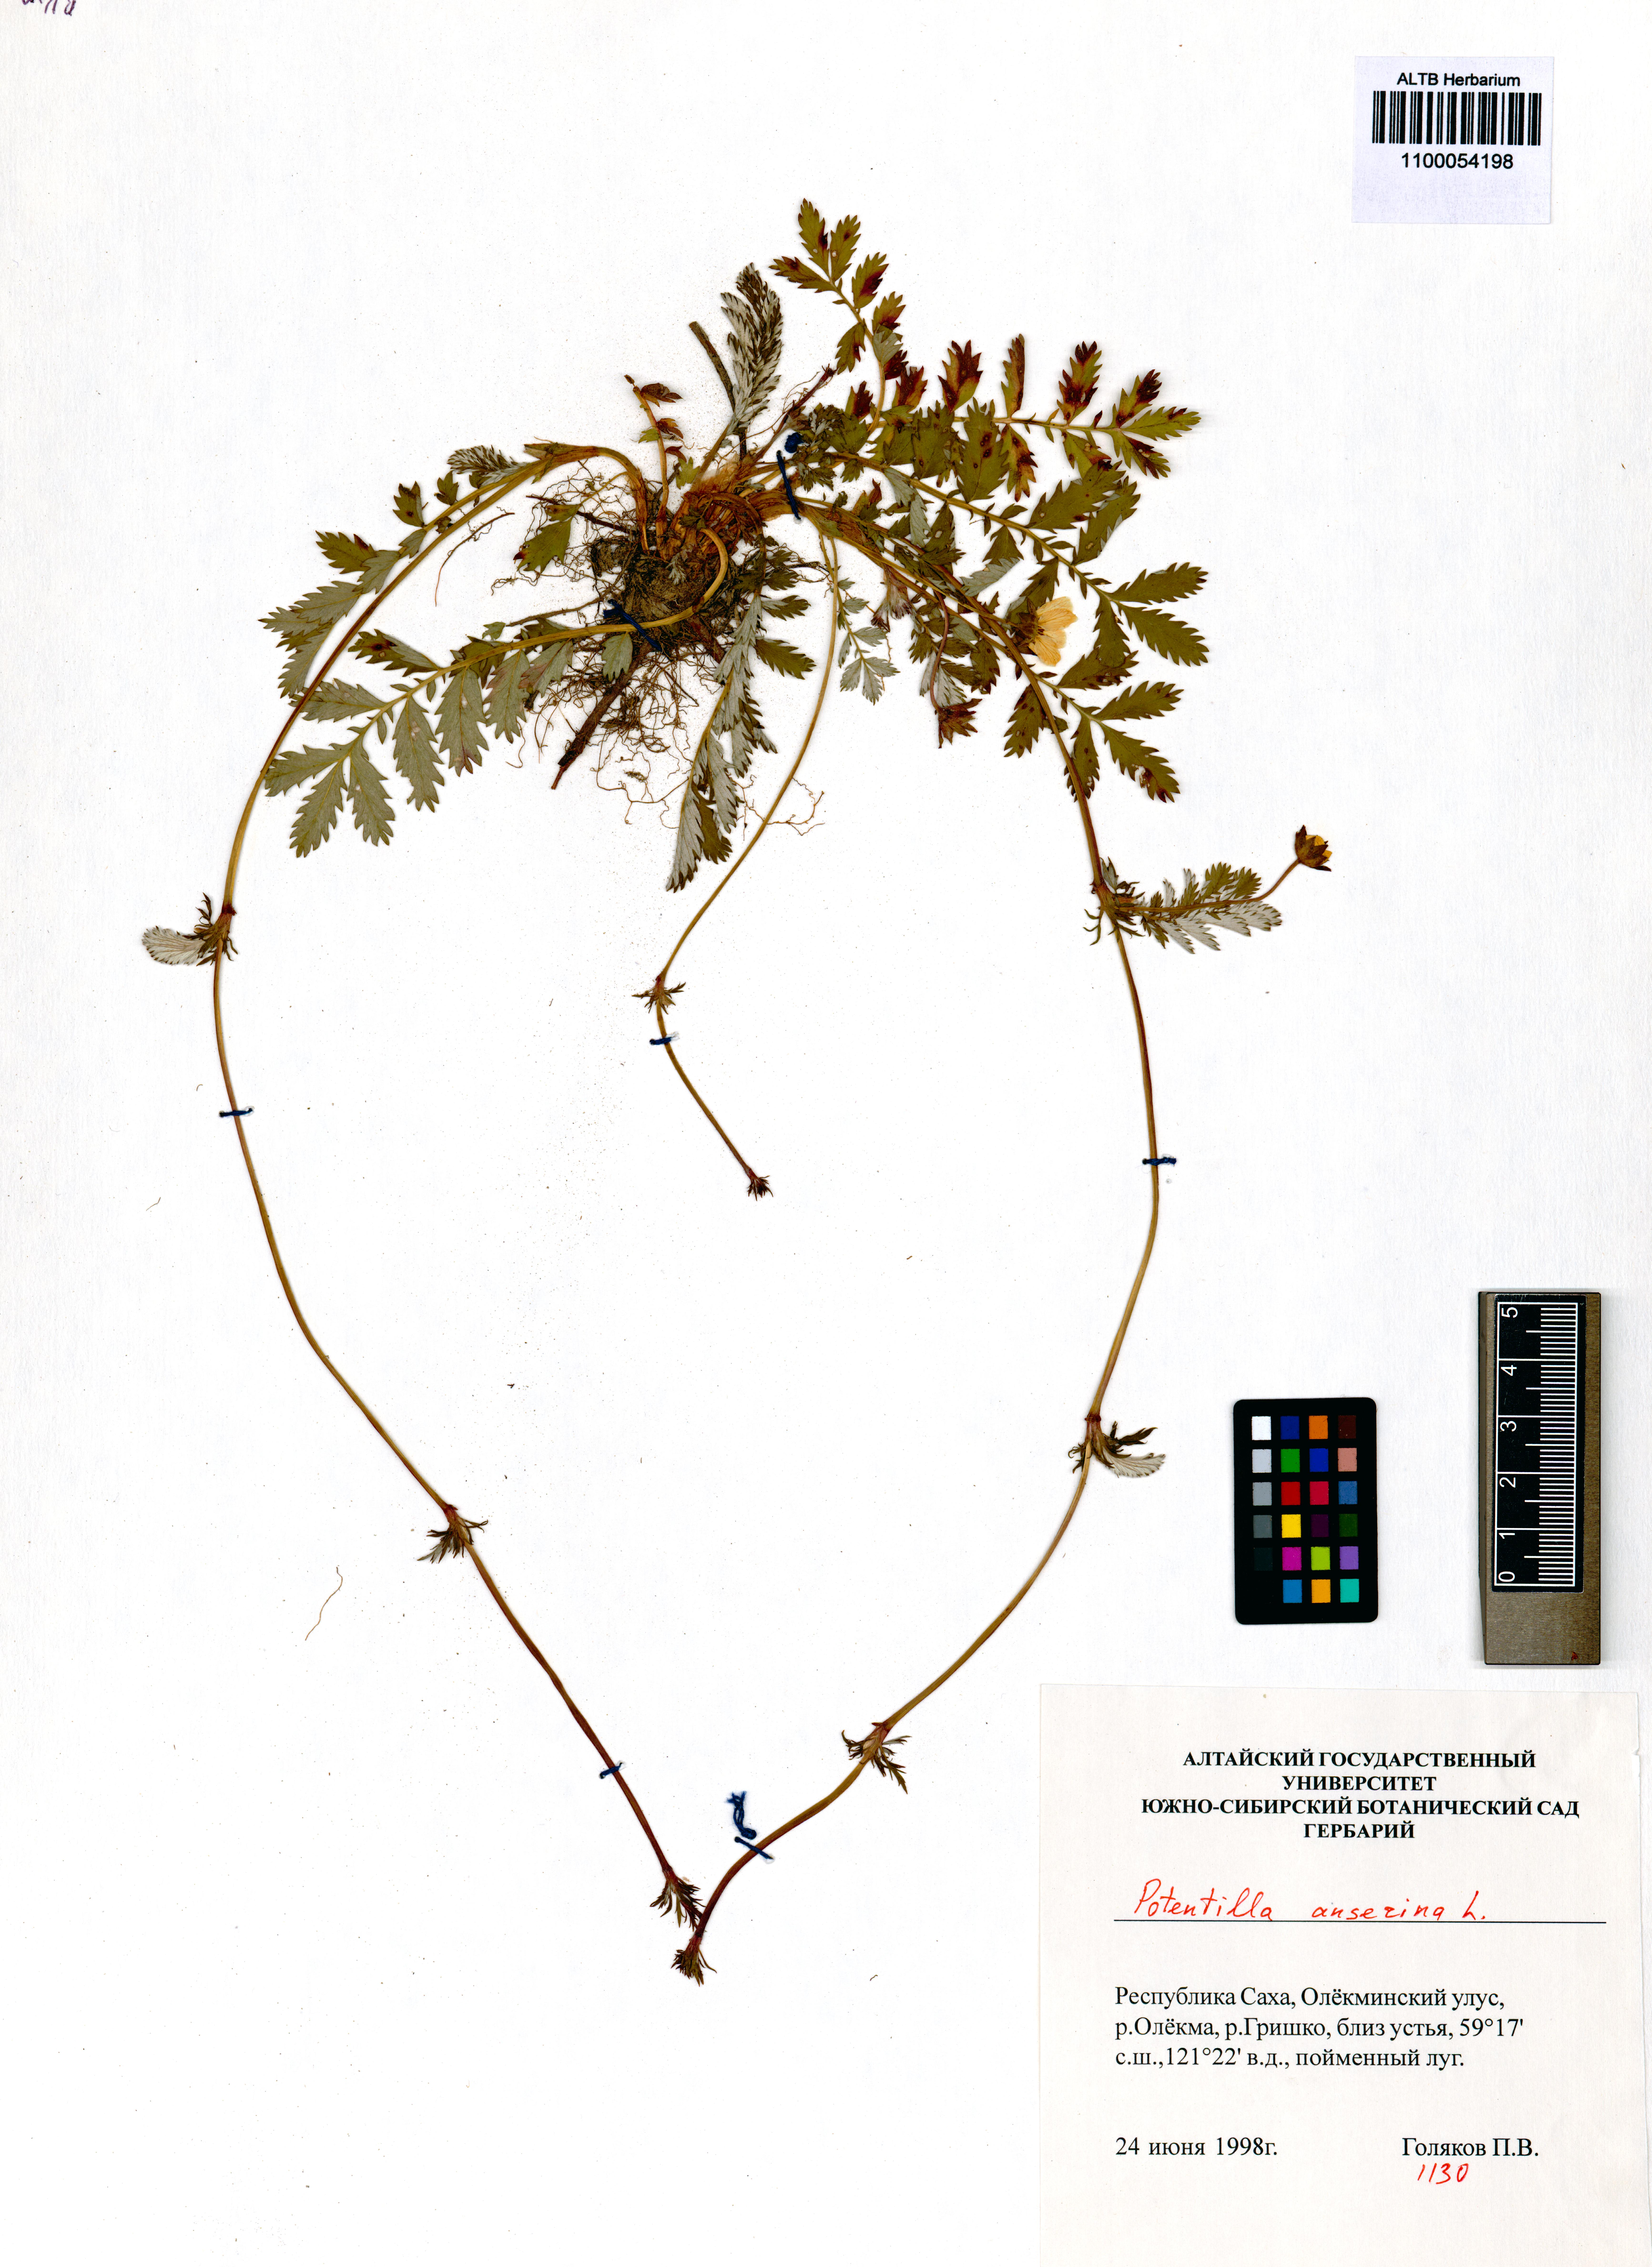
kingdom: Plantae
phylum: Tracheophyta
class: Magnoliopsida
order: Rosales
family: Rosaceae
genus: Argentina
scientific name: Argentina anserina
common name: Common silverweed
